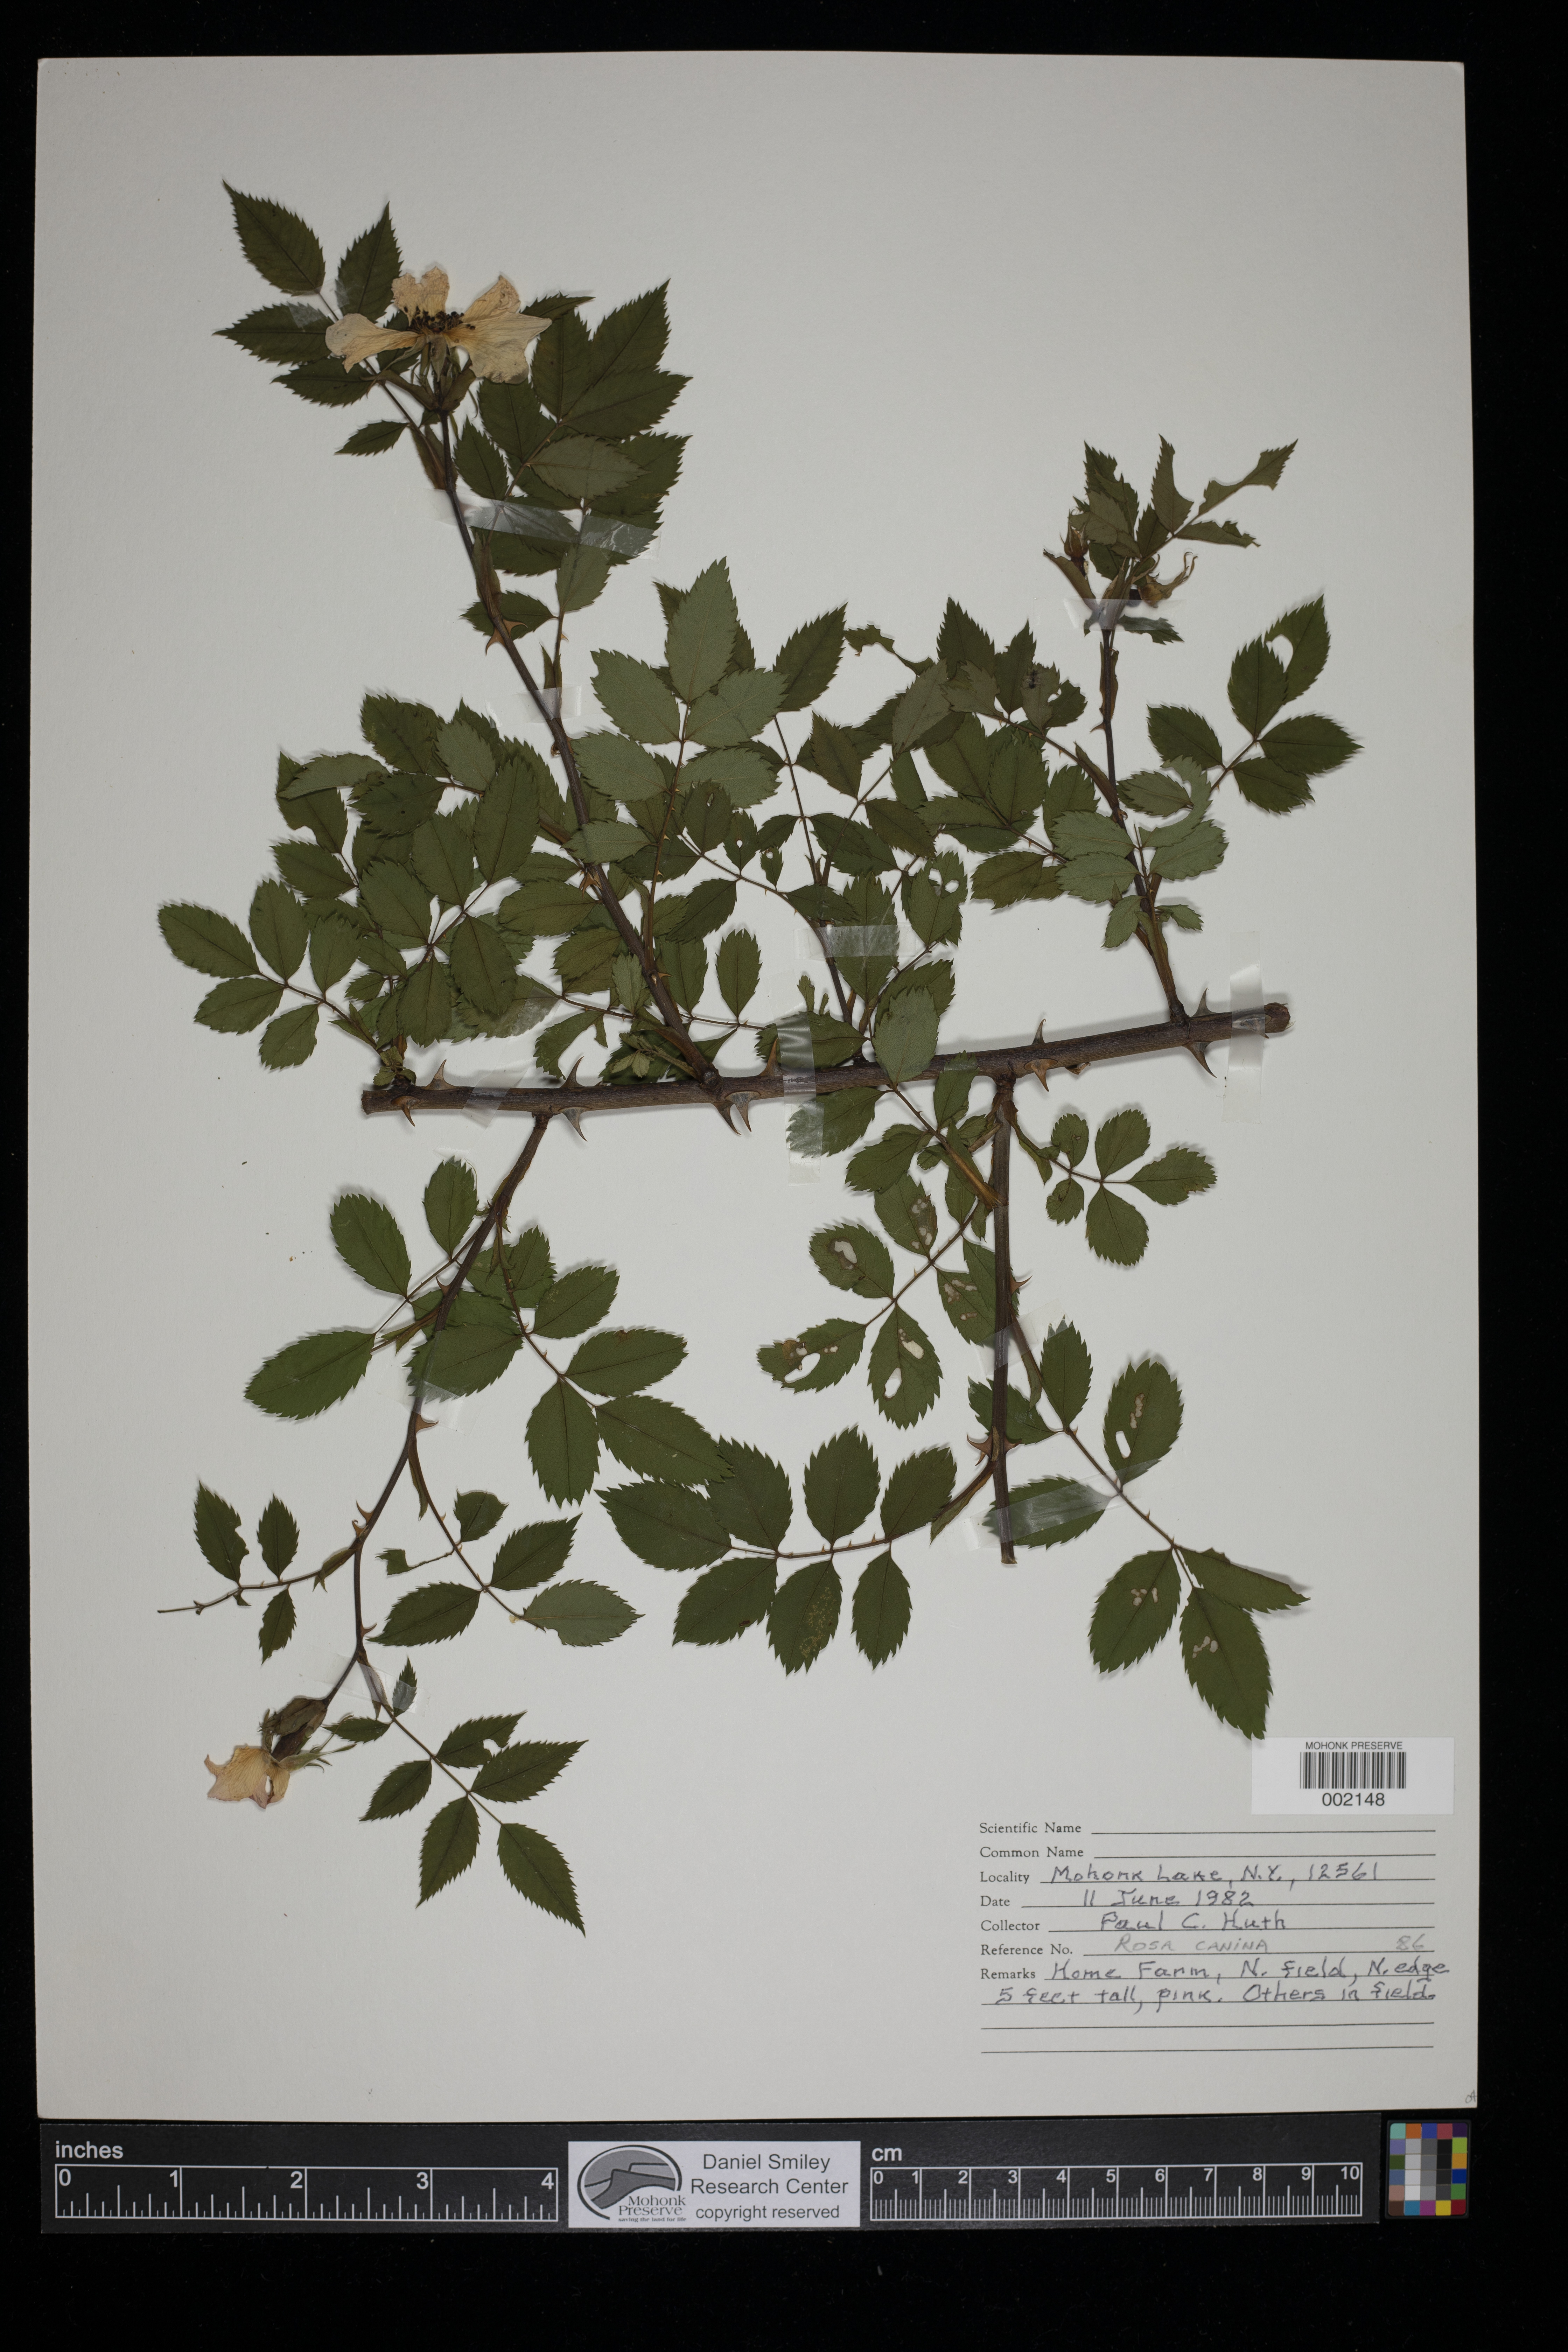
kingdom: Plantae
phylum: Tracheophyta
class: Magnoliopsida
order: Rosales
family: Rosaceae
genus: Rosa
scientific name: Rosa canina
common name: Dog rose
